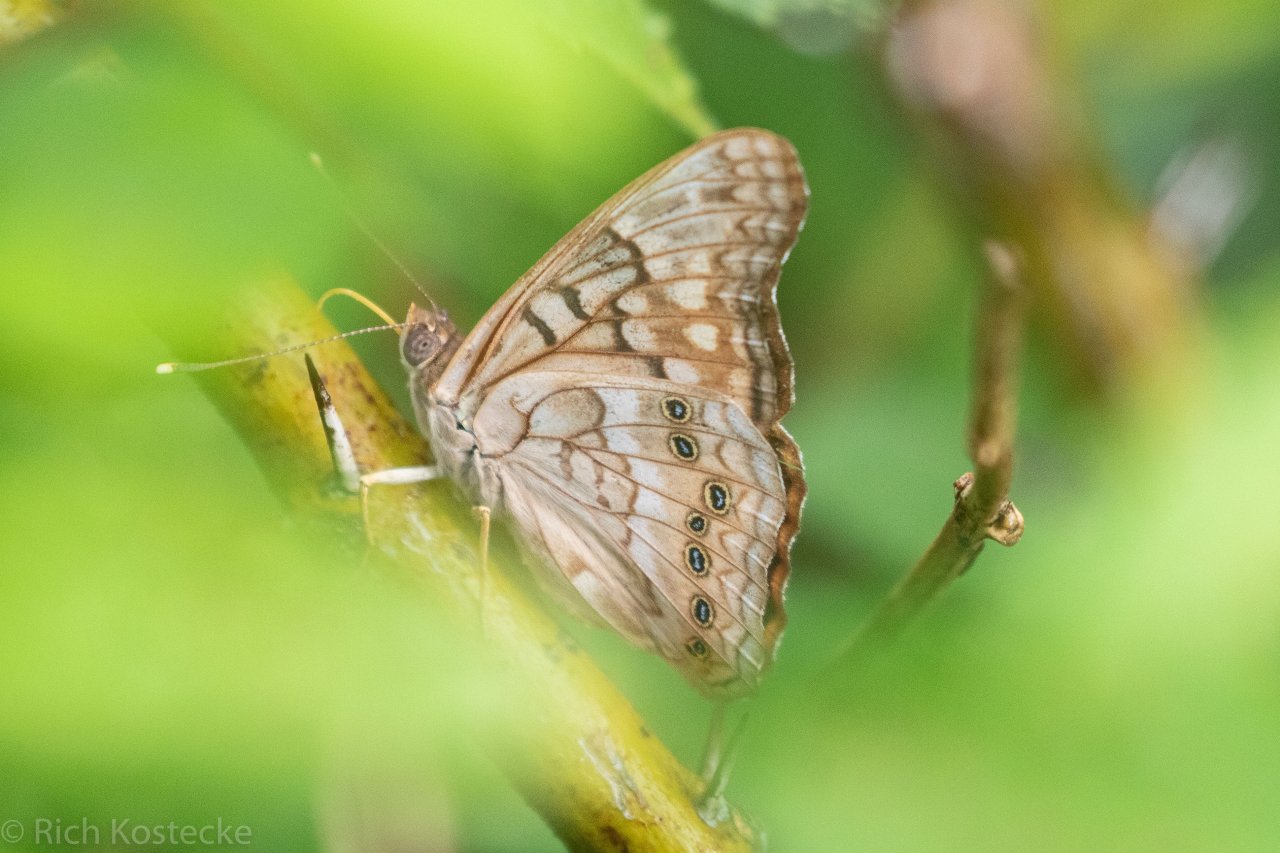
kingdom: Animalia
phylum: Arthropoda
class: Insecta
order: Lepidoptera
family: Nymphalidae
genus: Asterocampa
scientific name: Asterocampa clyton
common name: Tawny Emperor
